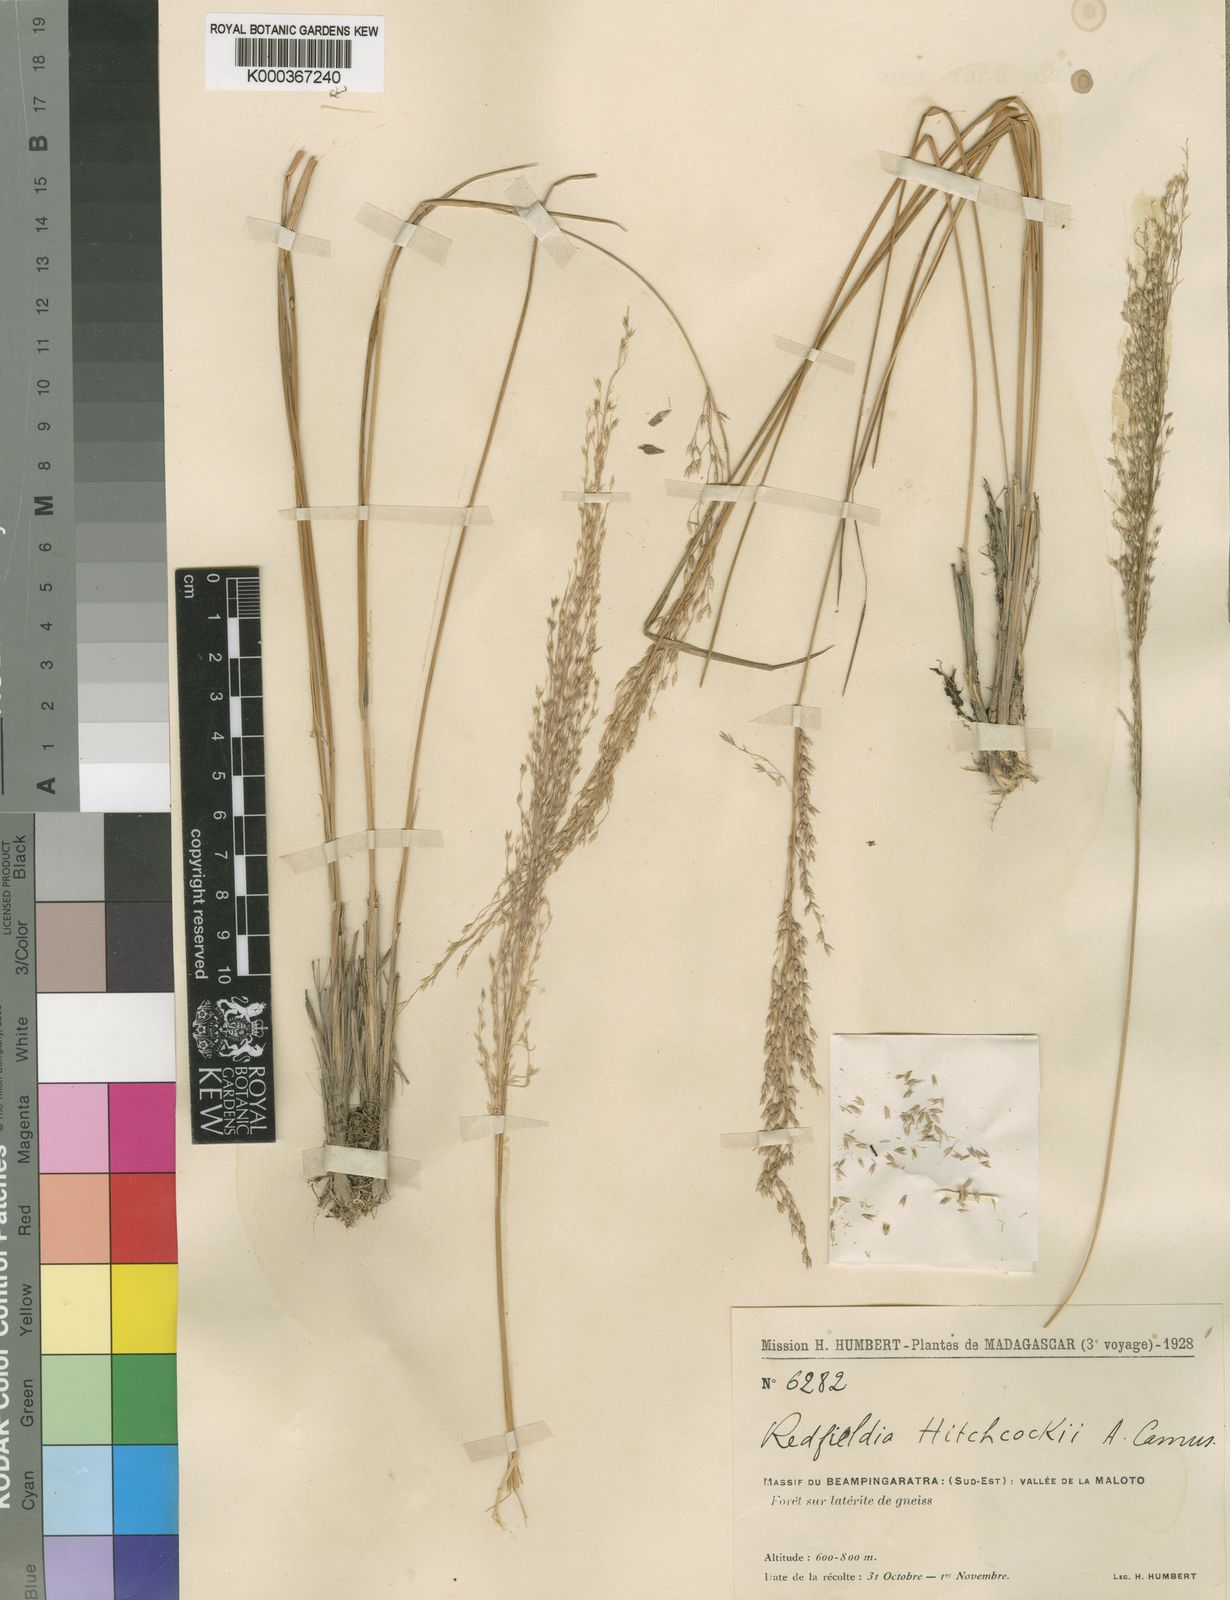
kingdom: Plantae
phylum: Tracheophyta
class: Liliopsida
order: Poales
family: Poaceae
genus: Styppeiochloa
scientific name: Styppeiochloa hitchcockii
